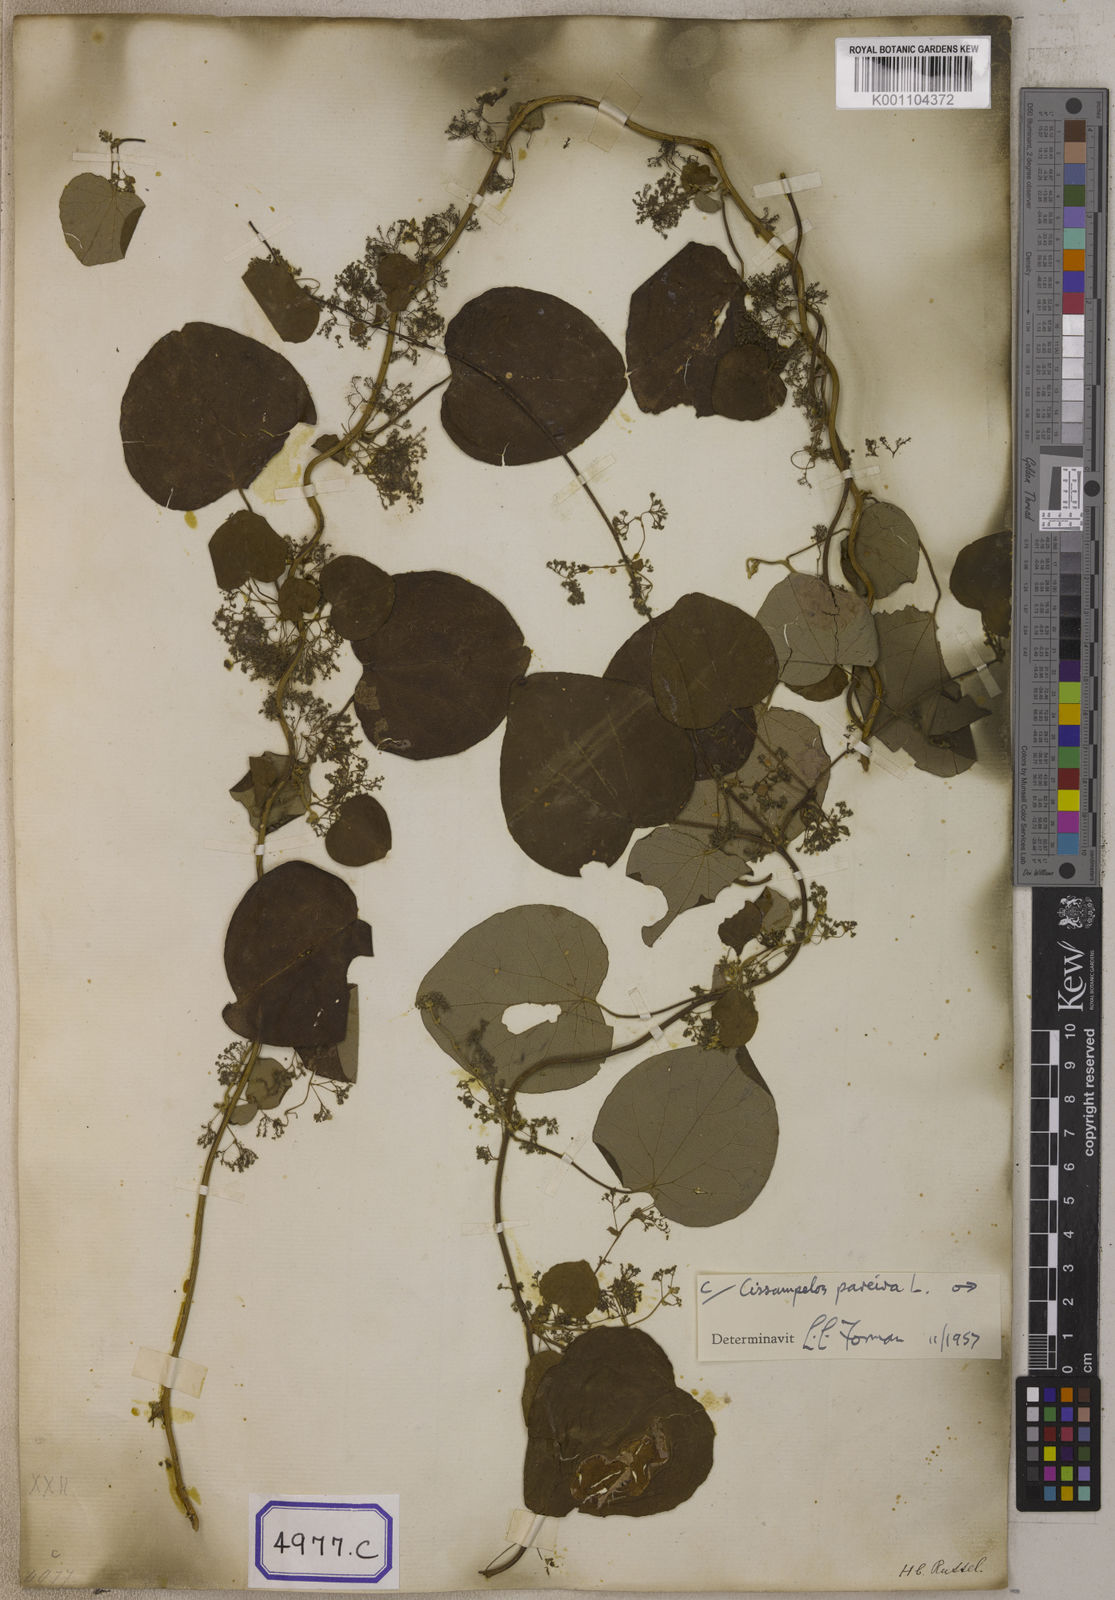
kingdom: Plantae
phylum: Tracheophyta
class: Magnoliopsida
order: Ranunculales
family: Menispermaceae
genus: Stephania
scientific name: Stephania japonica
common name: Snake vine
